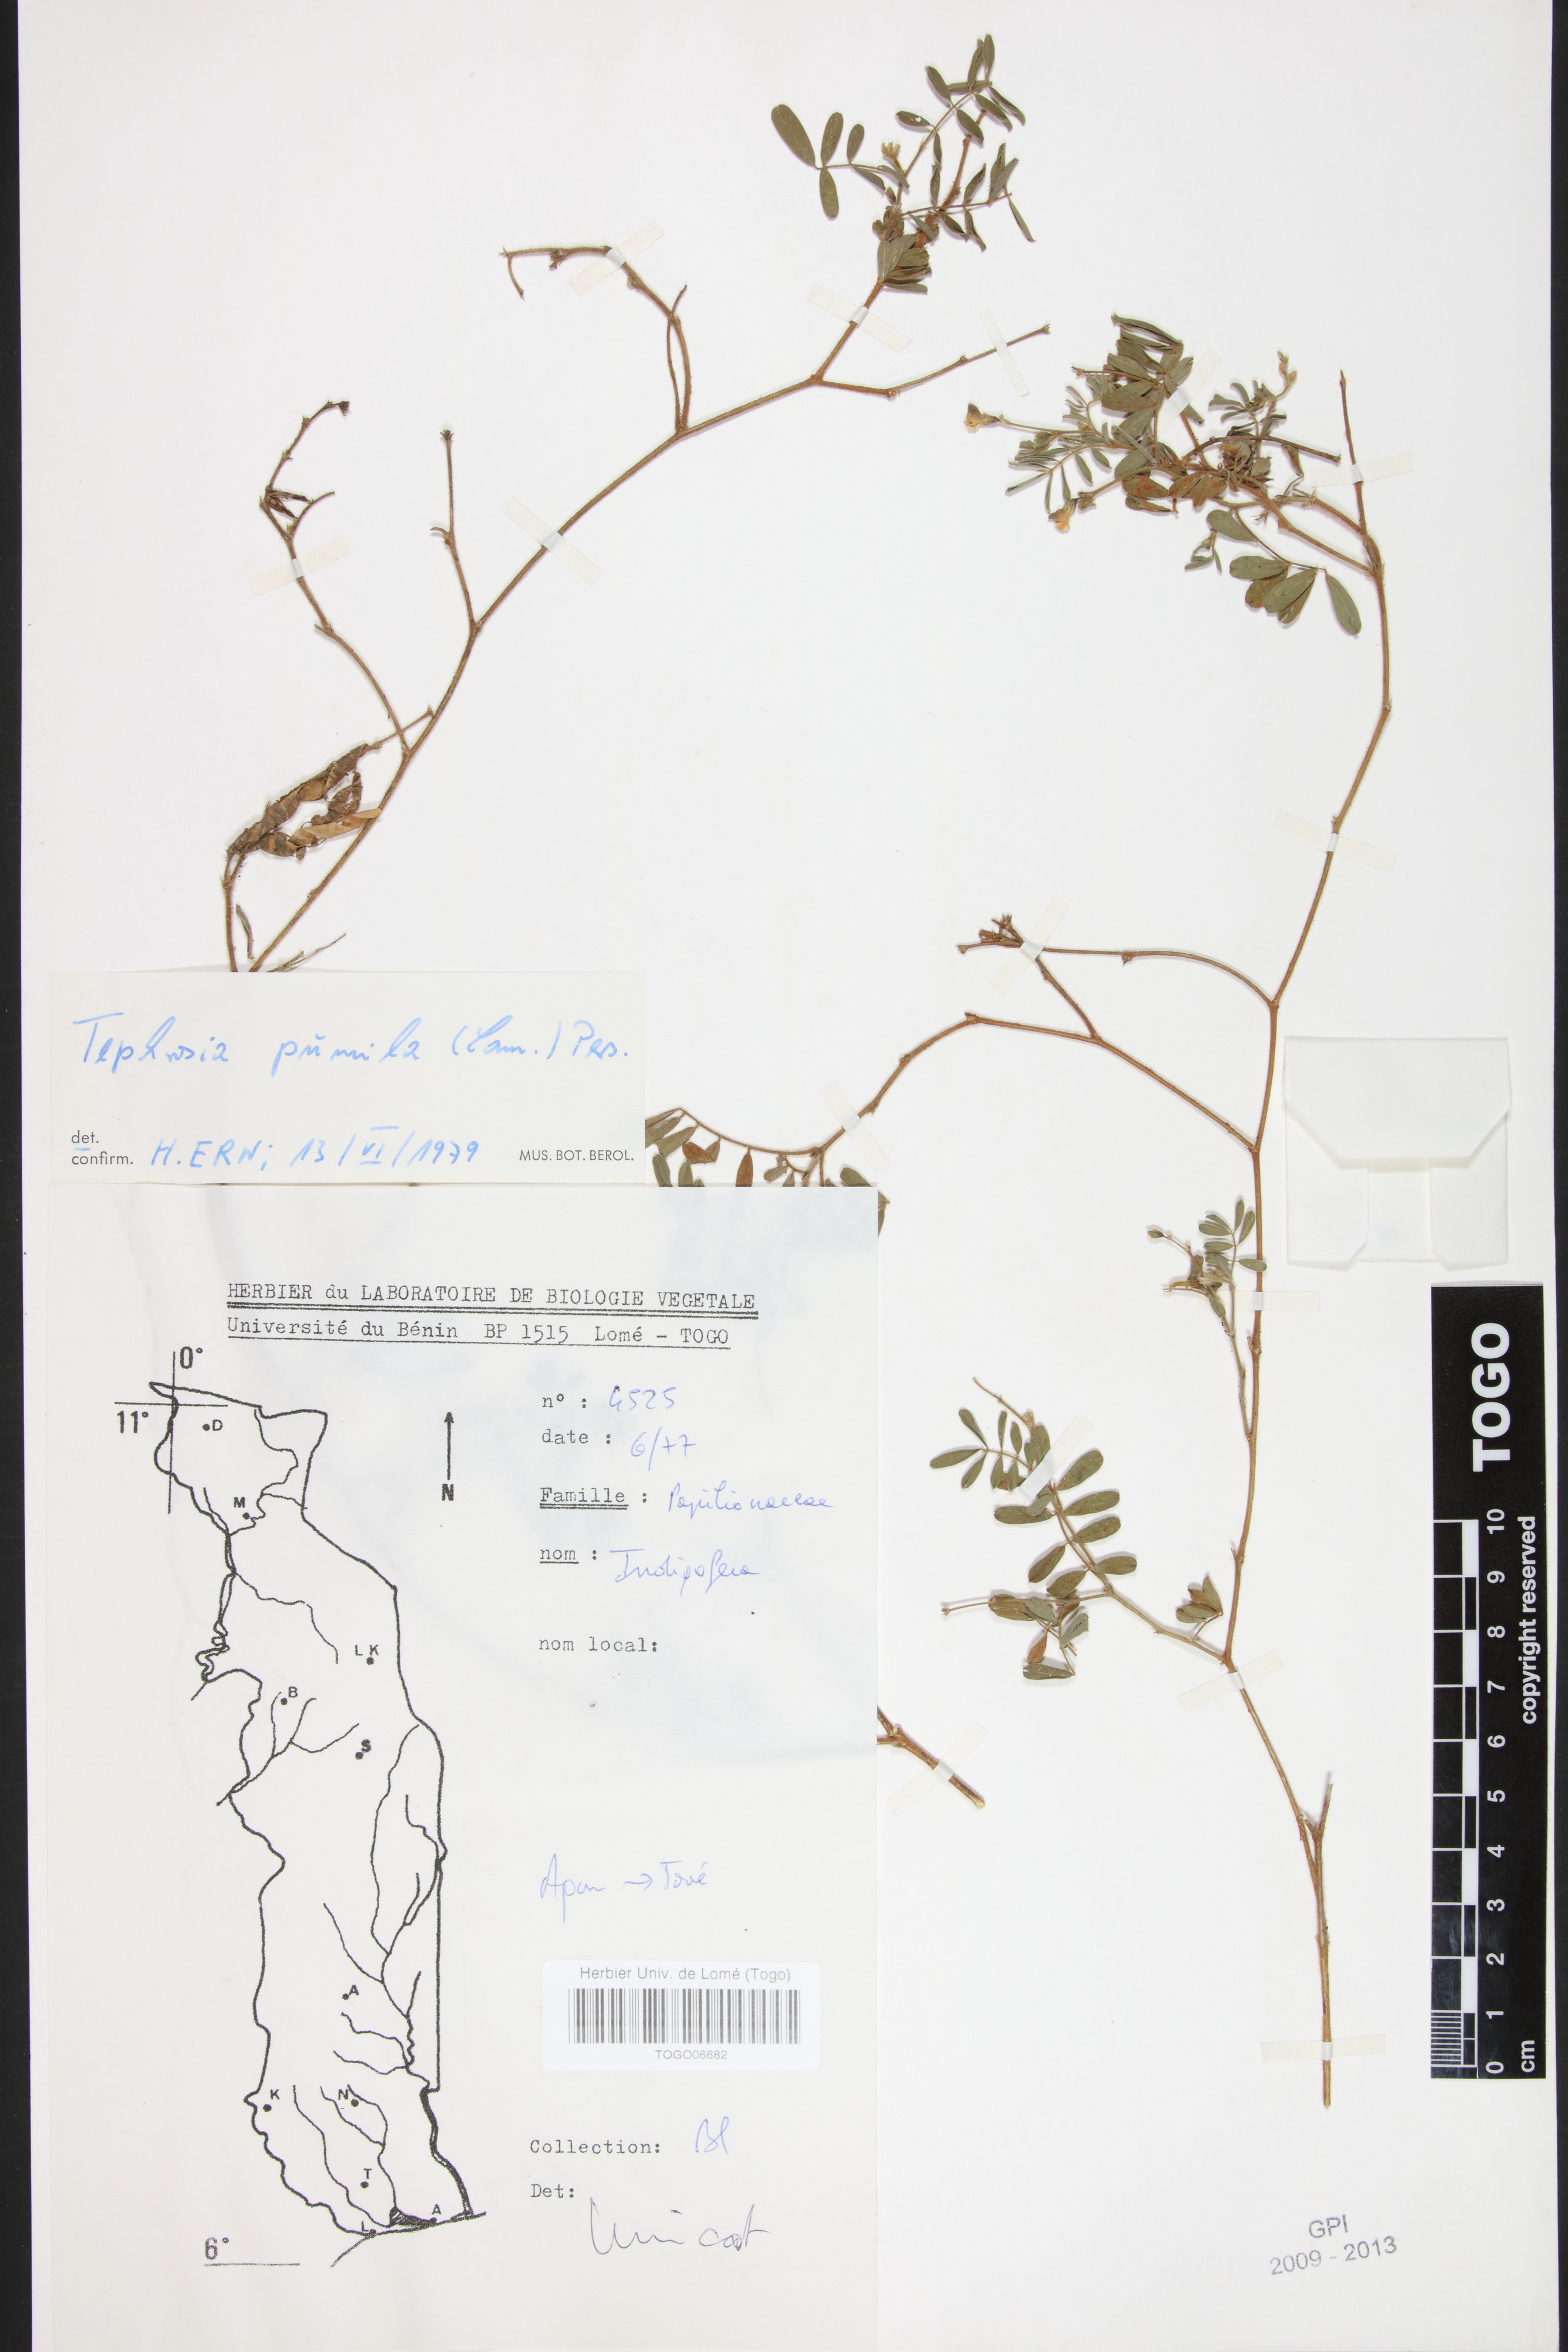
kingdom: Plantae
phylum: Tracheophyta
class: Magnoliopsida
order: Fabales
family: Fabaceae
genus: Tephrosia
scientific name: Tephrosia pumila
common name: Indigo sauvage
